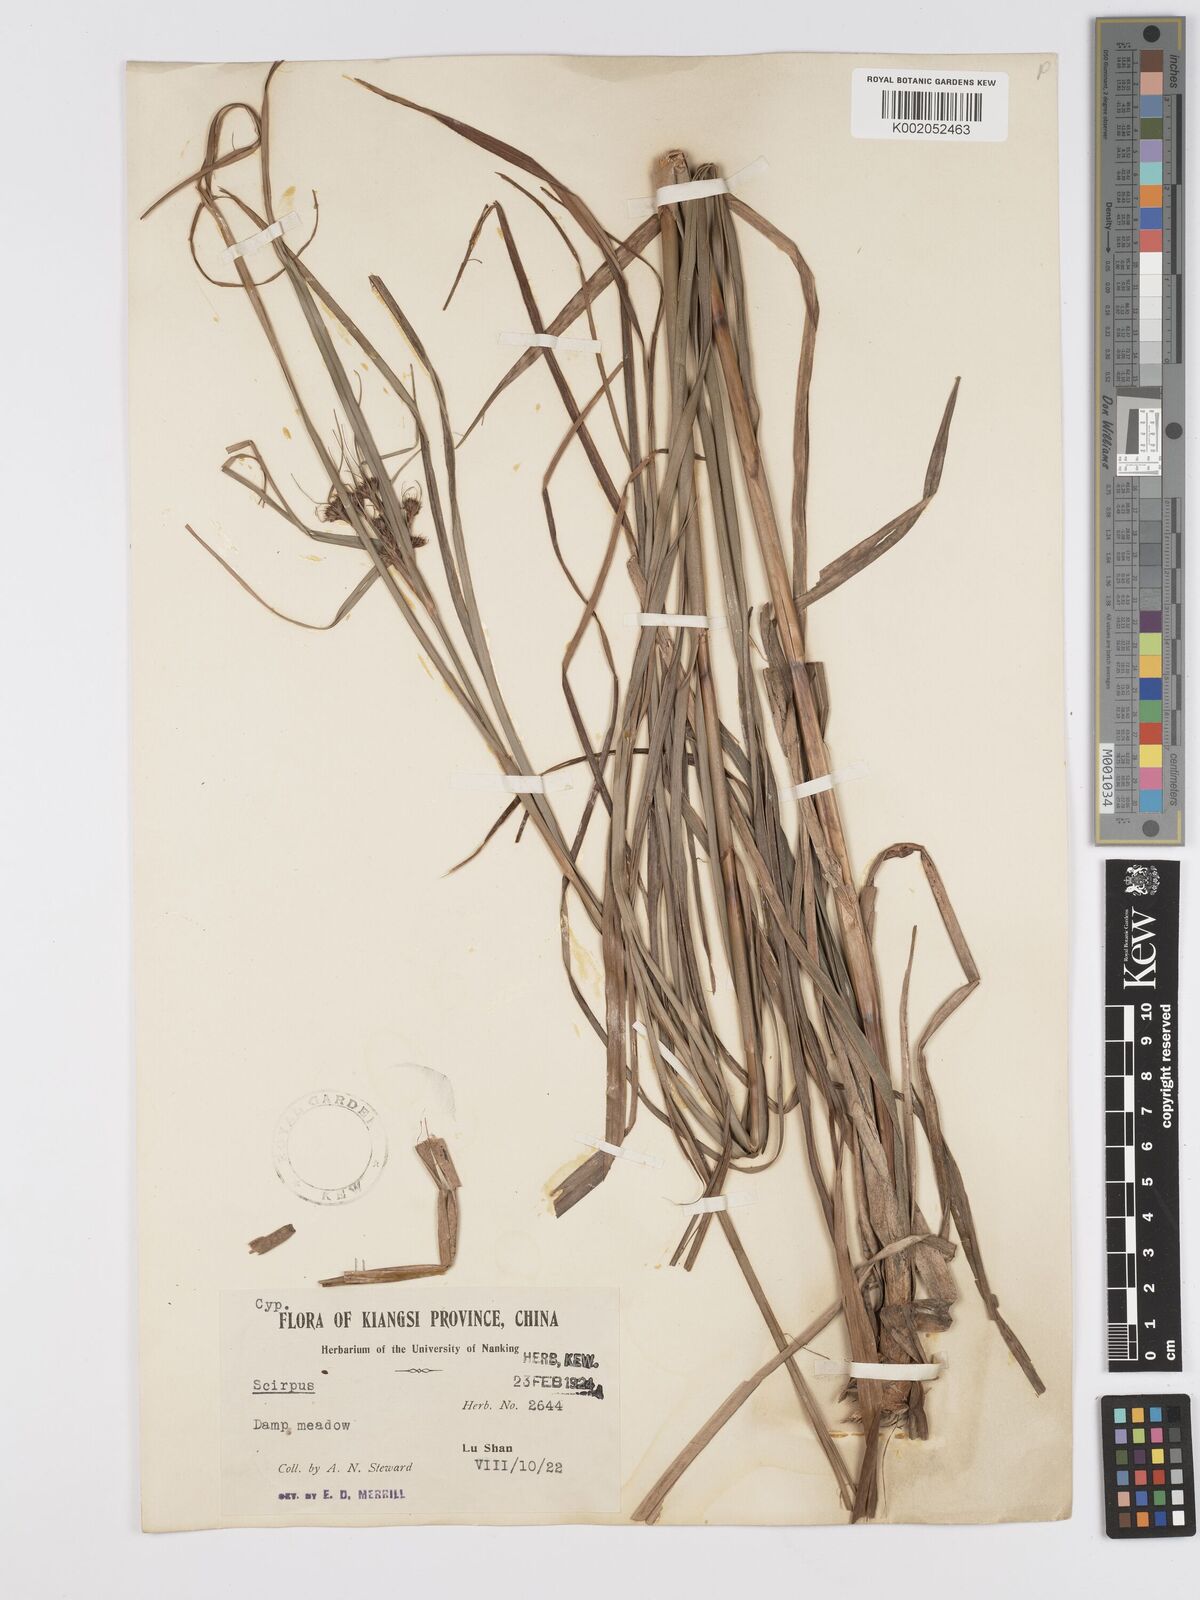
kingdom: Plantae
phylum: Tracheophyta
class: Liliopsida
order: Poales
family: Cyperaceae
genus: Scirpus
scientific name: Scirpus
